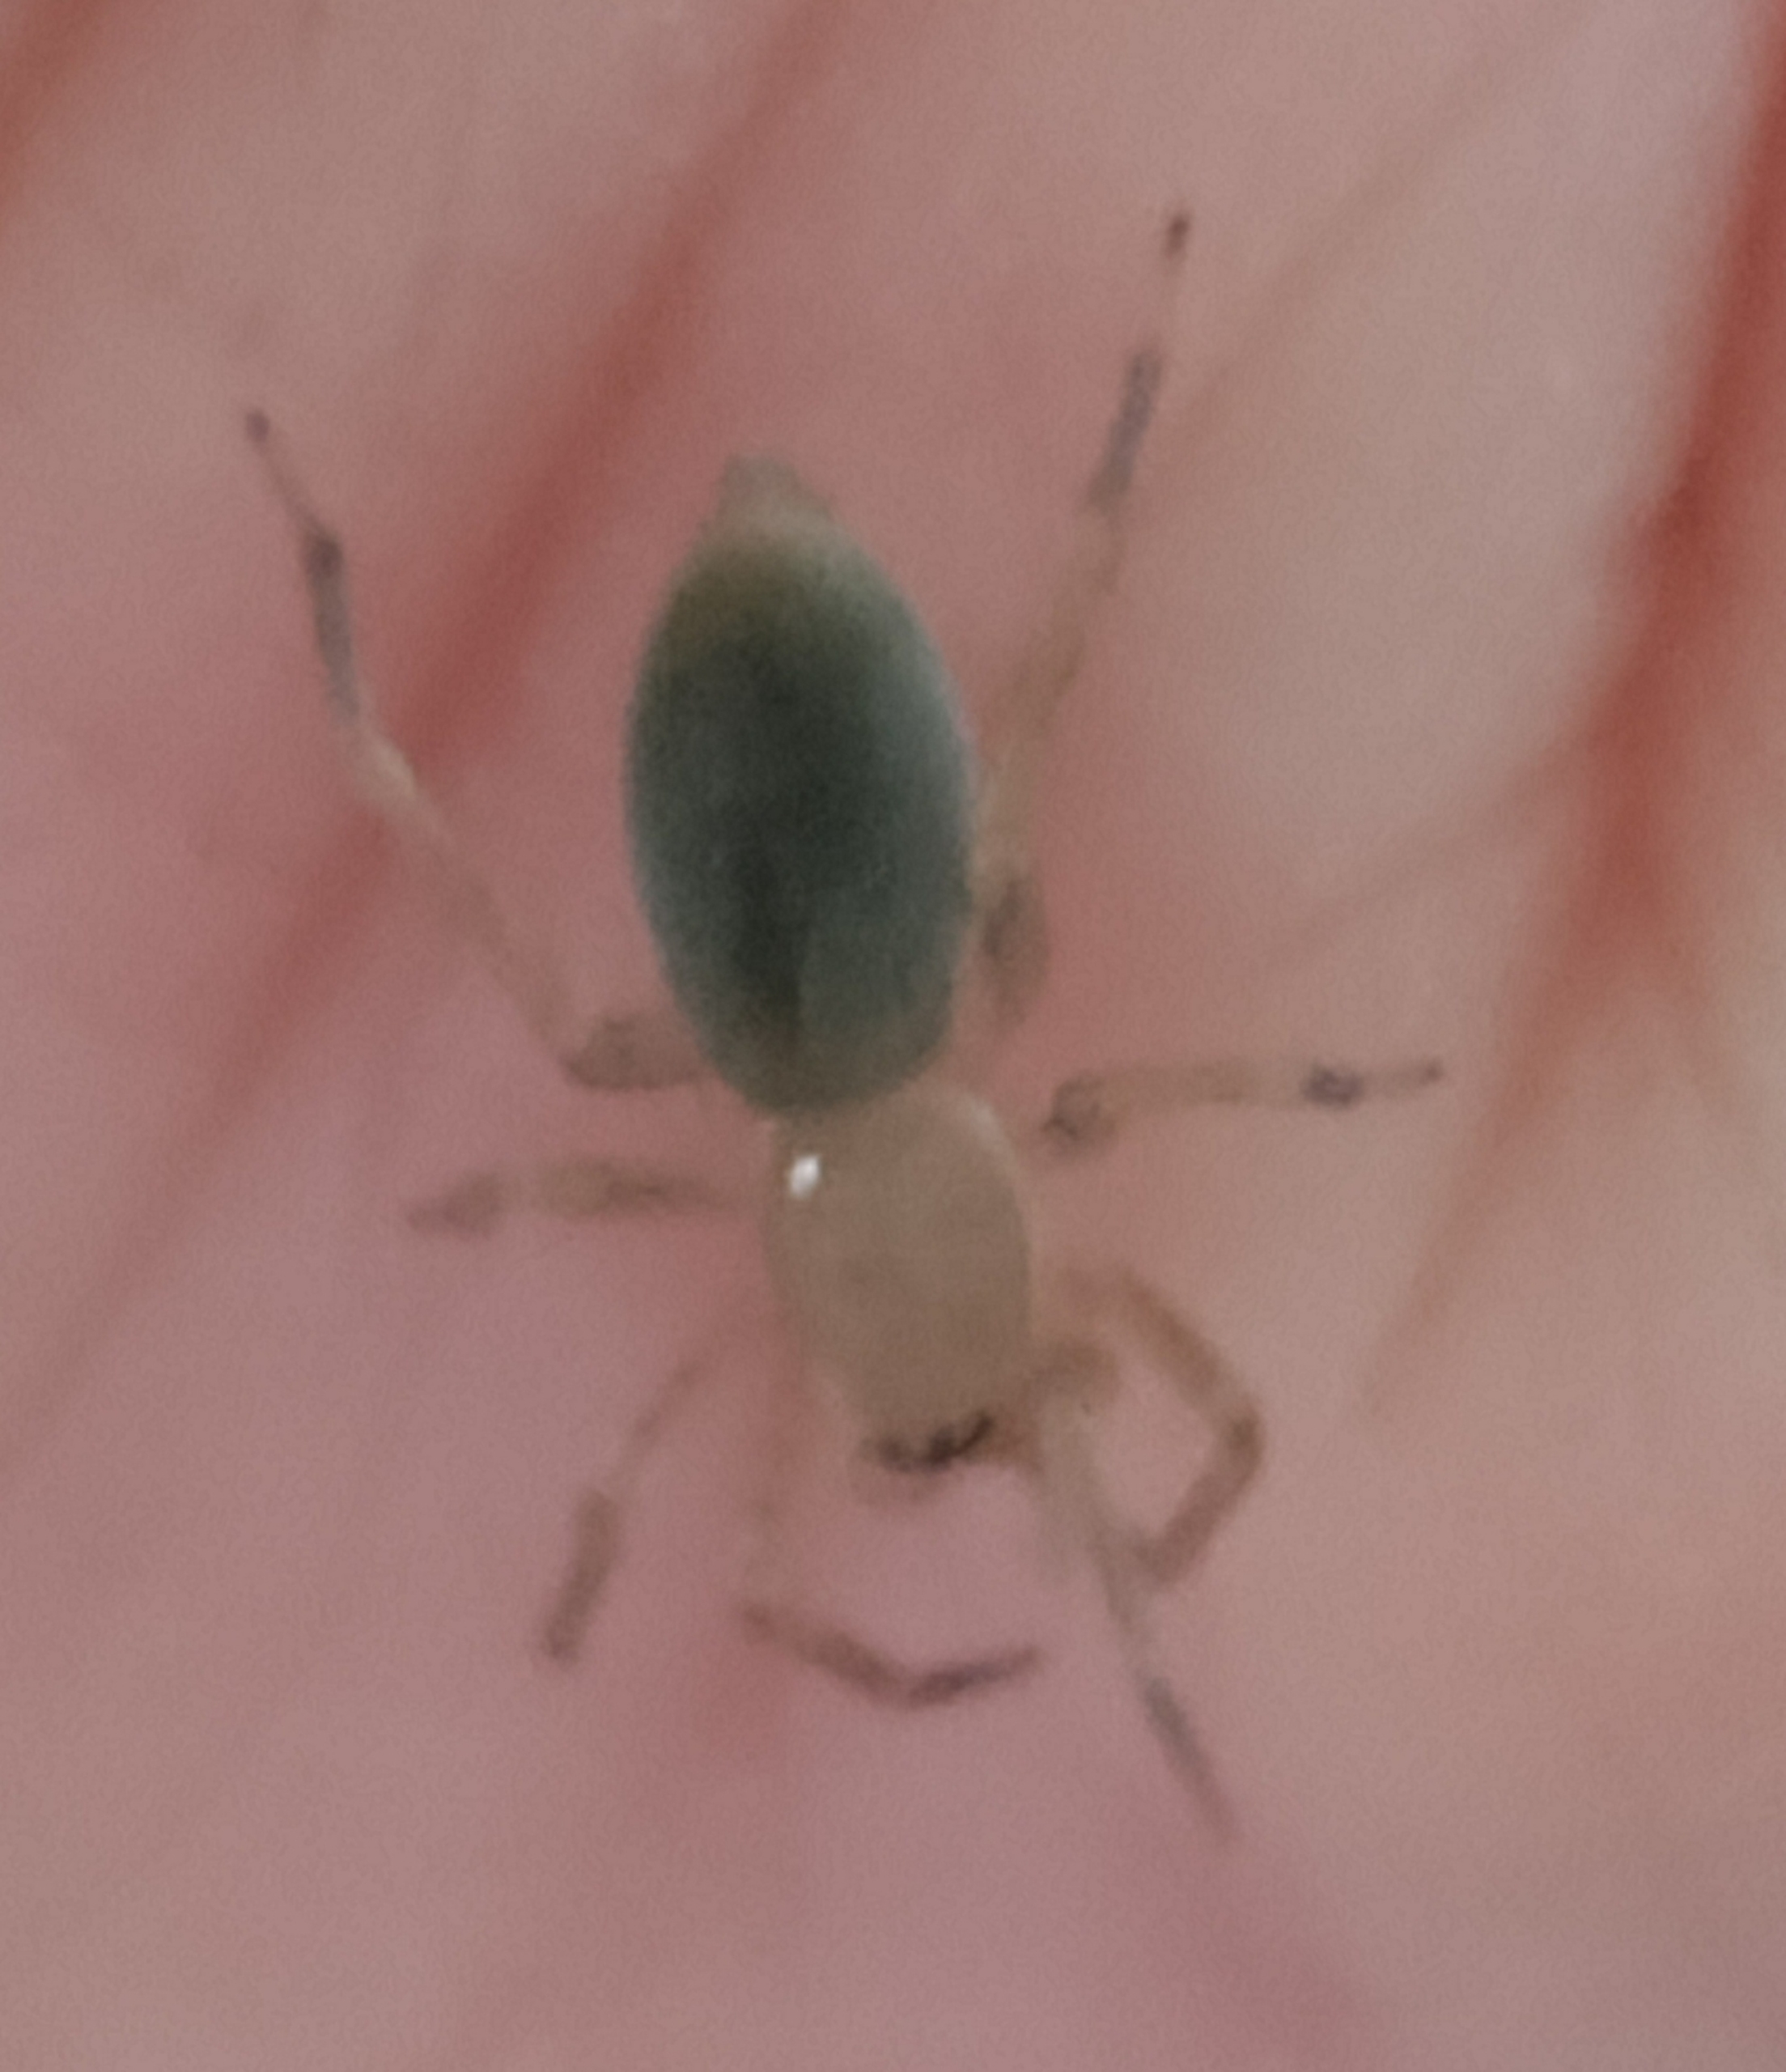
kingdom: Animalia
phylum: Arthropoda
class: Arachnida
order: Araneae
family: Clubionidae
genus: Clubiona
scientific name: Clubiona
